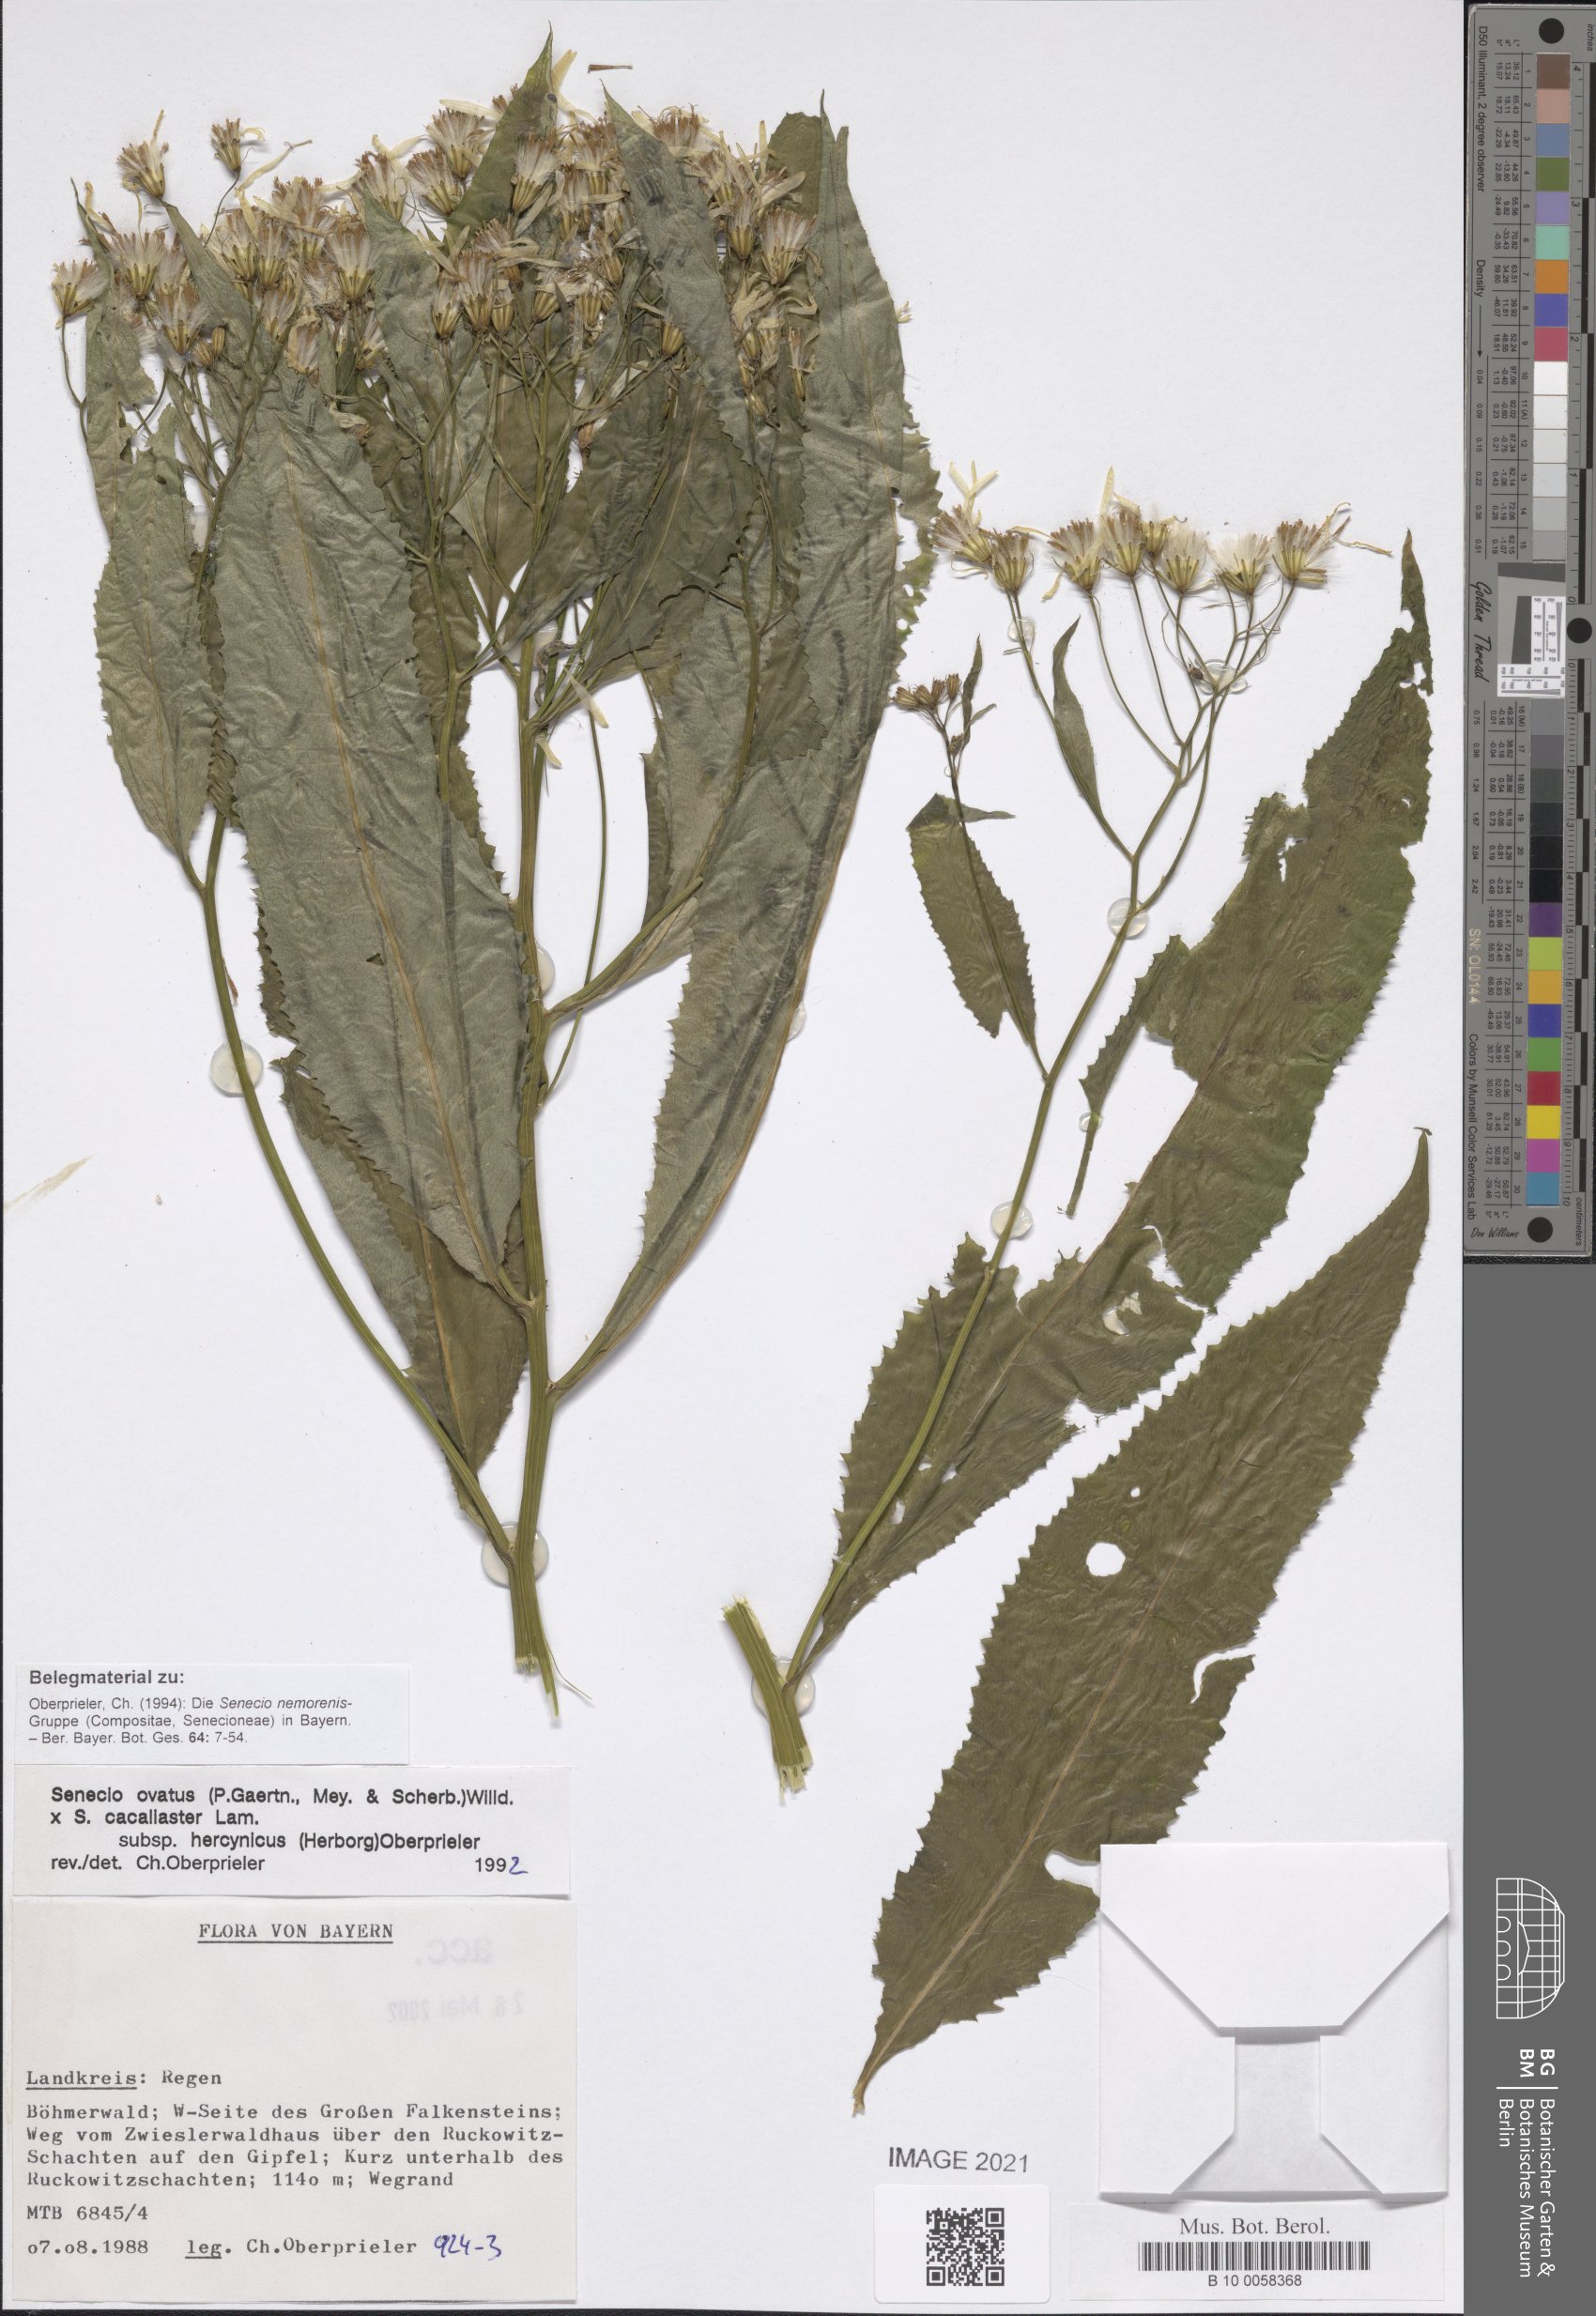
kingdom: Plantae
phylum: Tracheophyta
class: Magnoliopsida
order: Asterales
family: Asteraceae
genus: Senecio
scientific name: Senecio ovatus
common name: Wood ragwort
